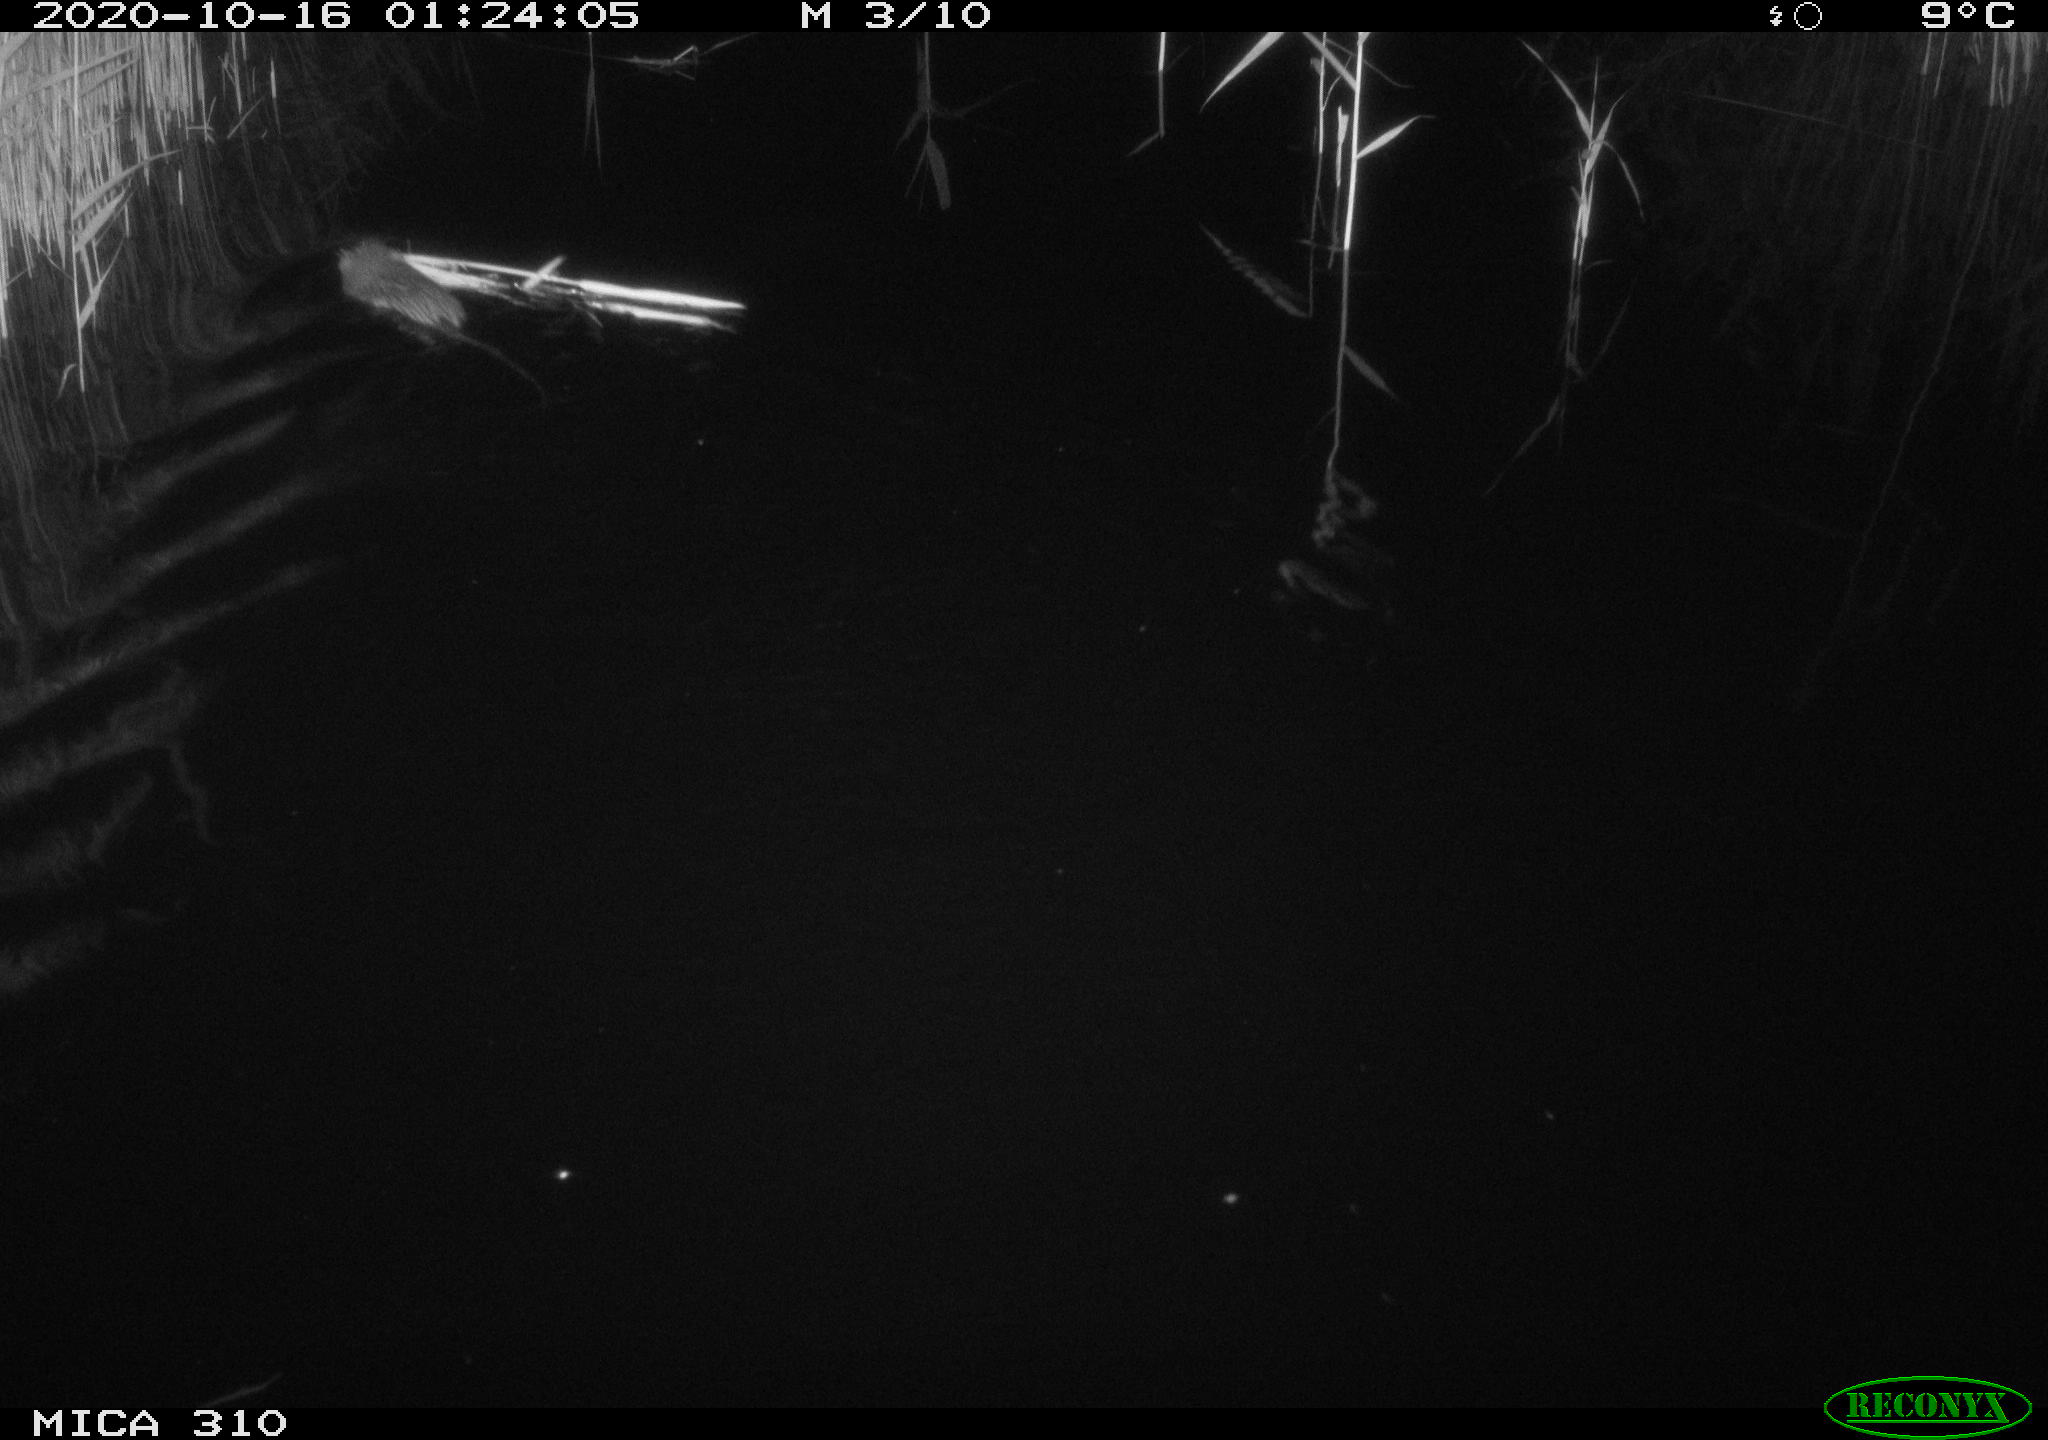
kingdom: Animalia
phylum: Chordata
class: Mammalia
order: Rodentia
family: Cricetidae
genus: Ondatra
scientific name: Ondatra zibethicus
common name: Muskrat
